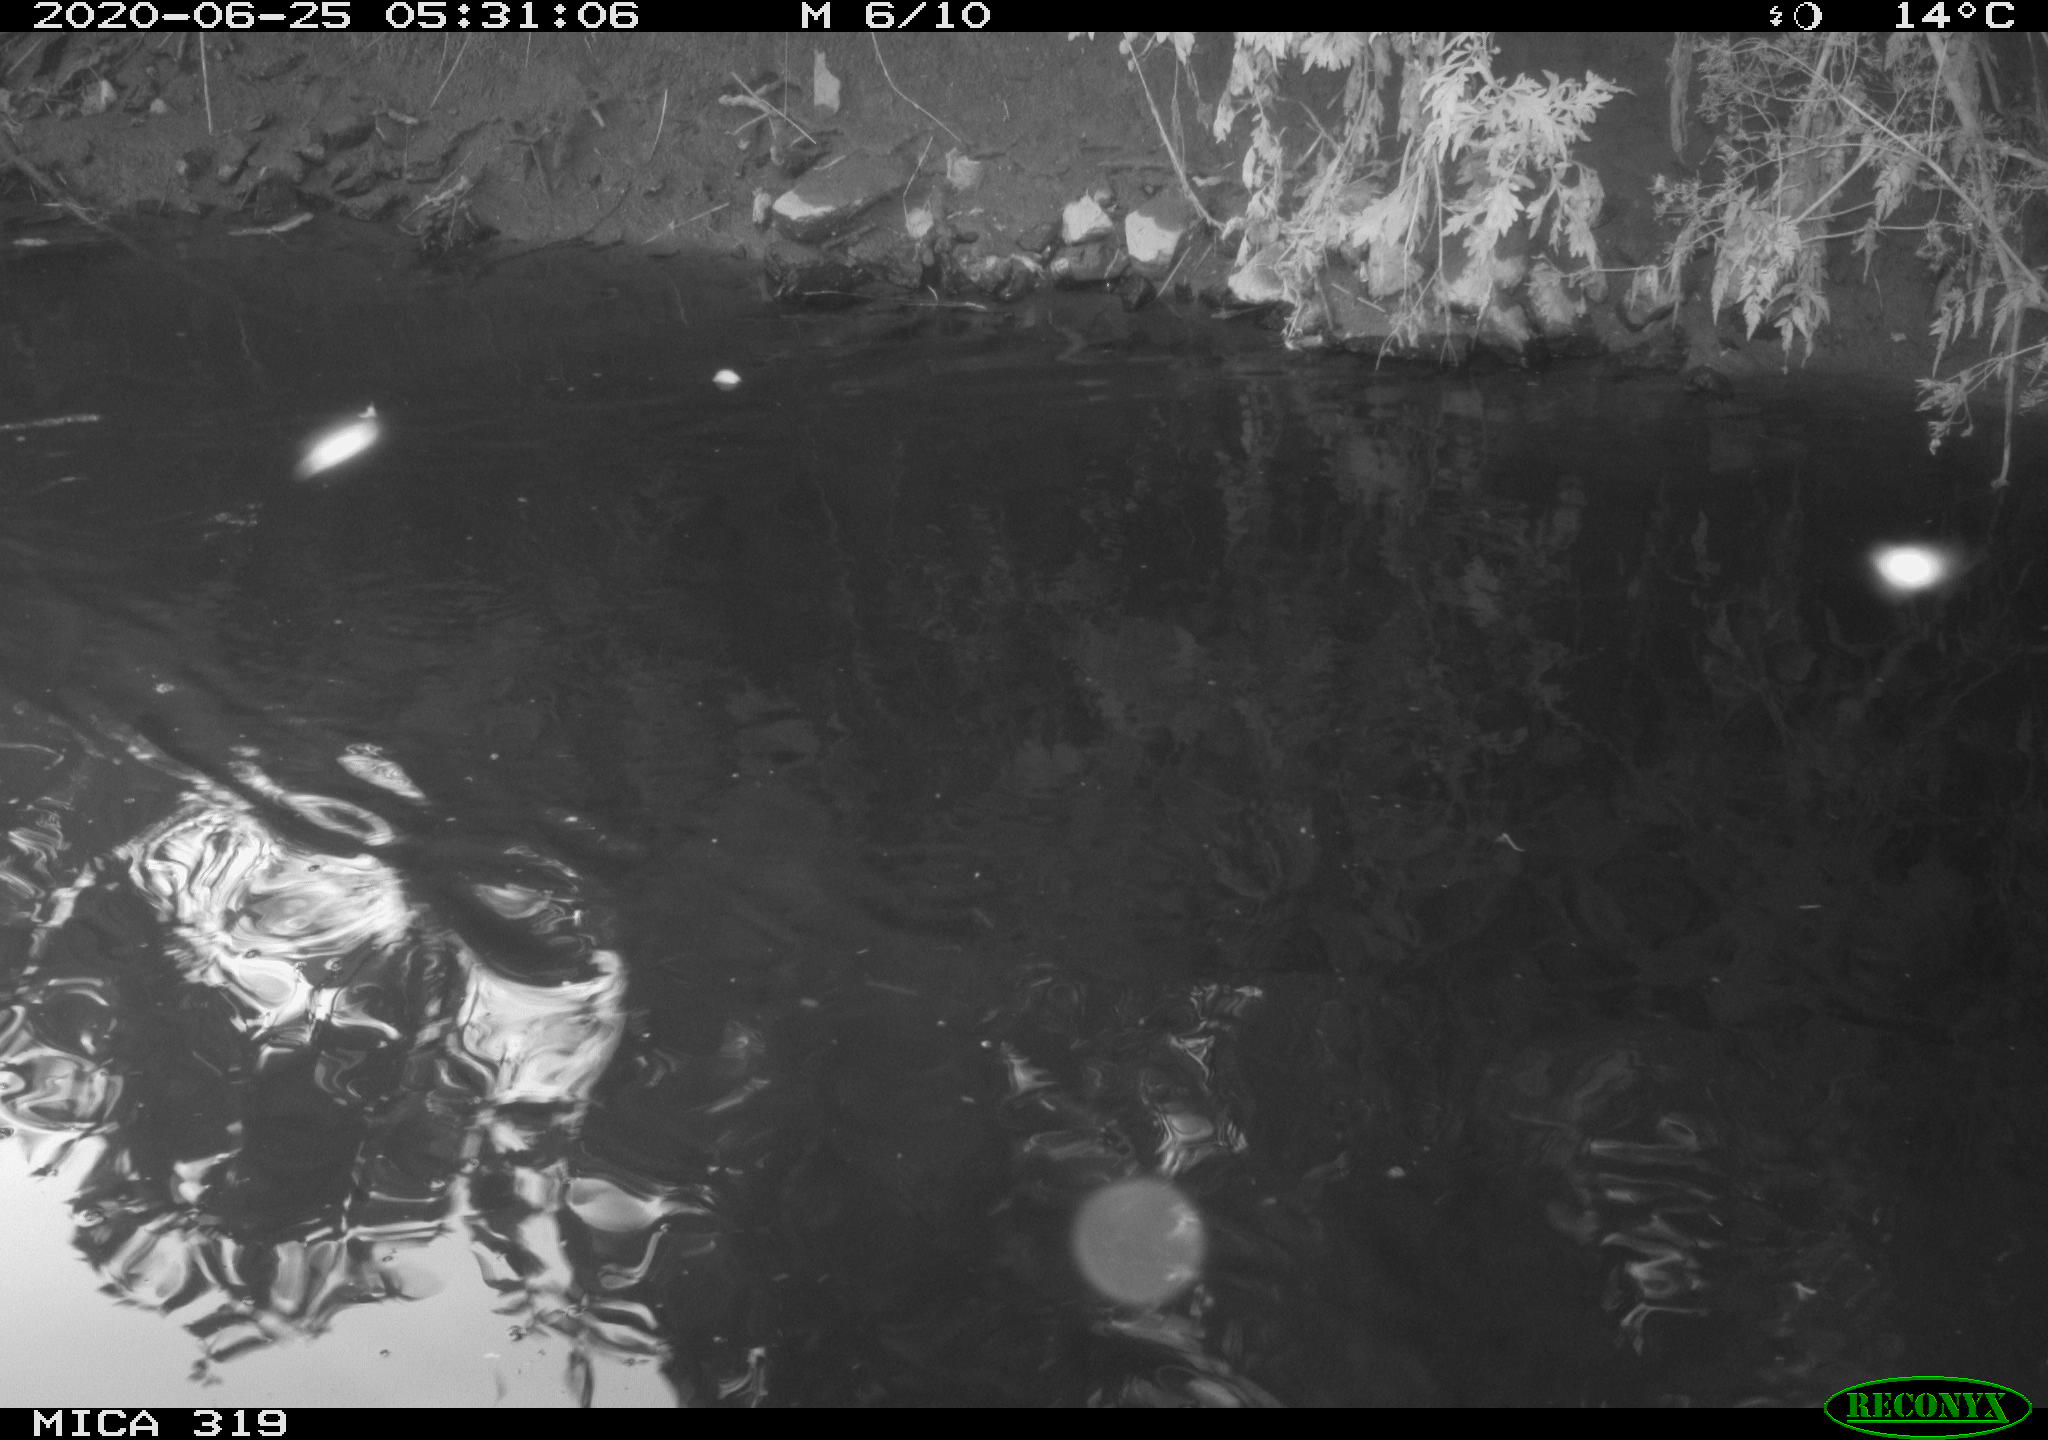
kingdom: Animalia
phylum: Chordata
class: Aves
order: Anseriformes
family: Anatidae
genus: Anas
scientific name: Anas platyrhynchos
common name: Mallard
